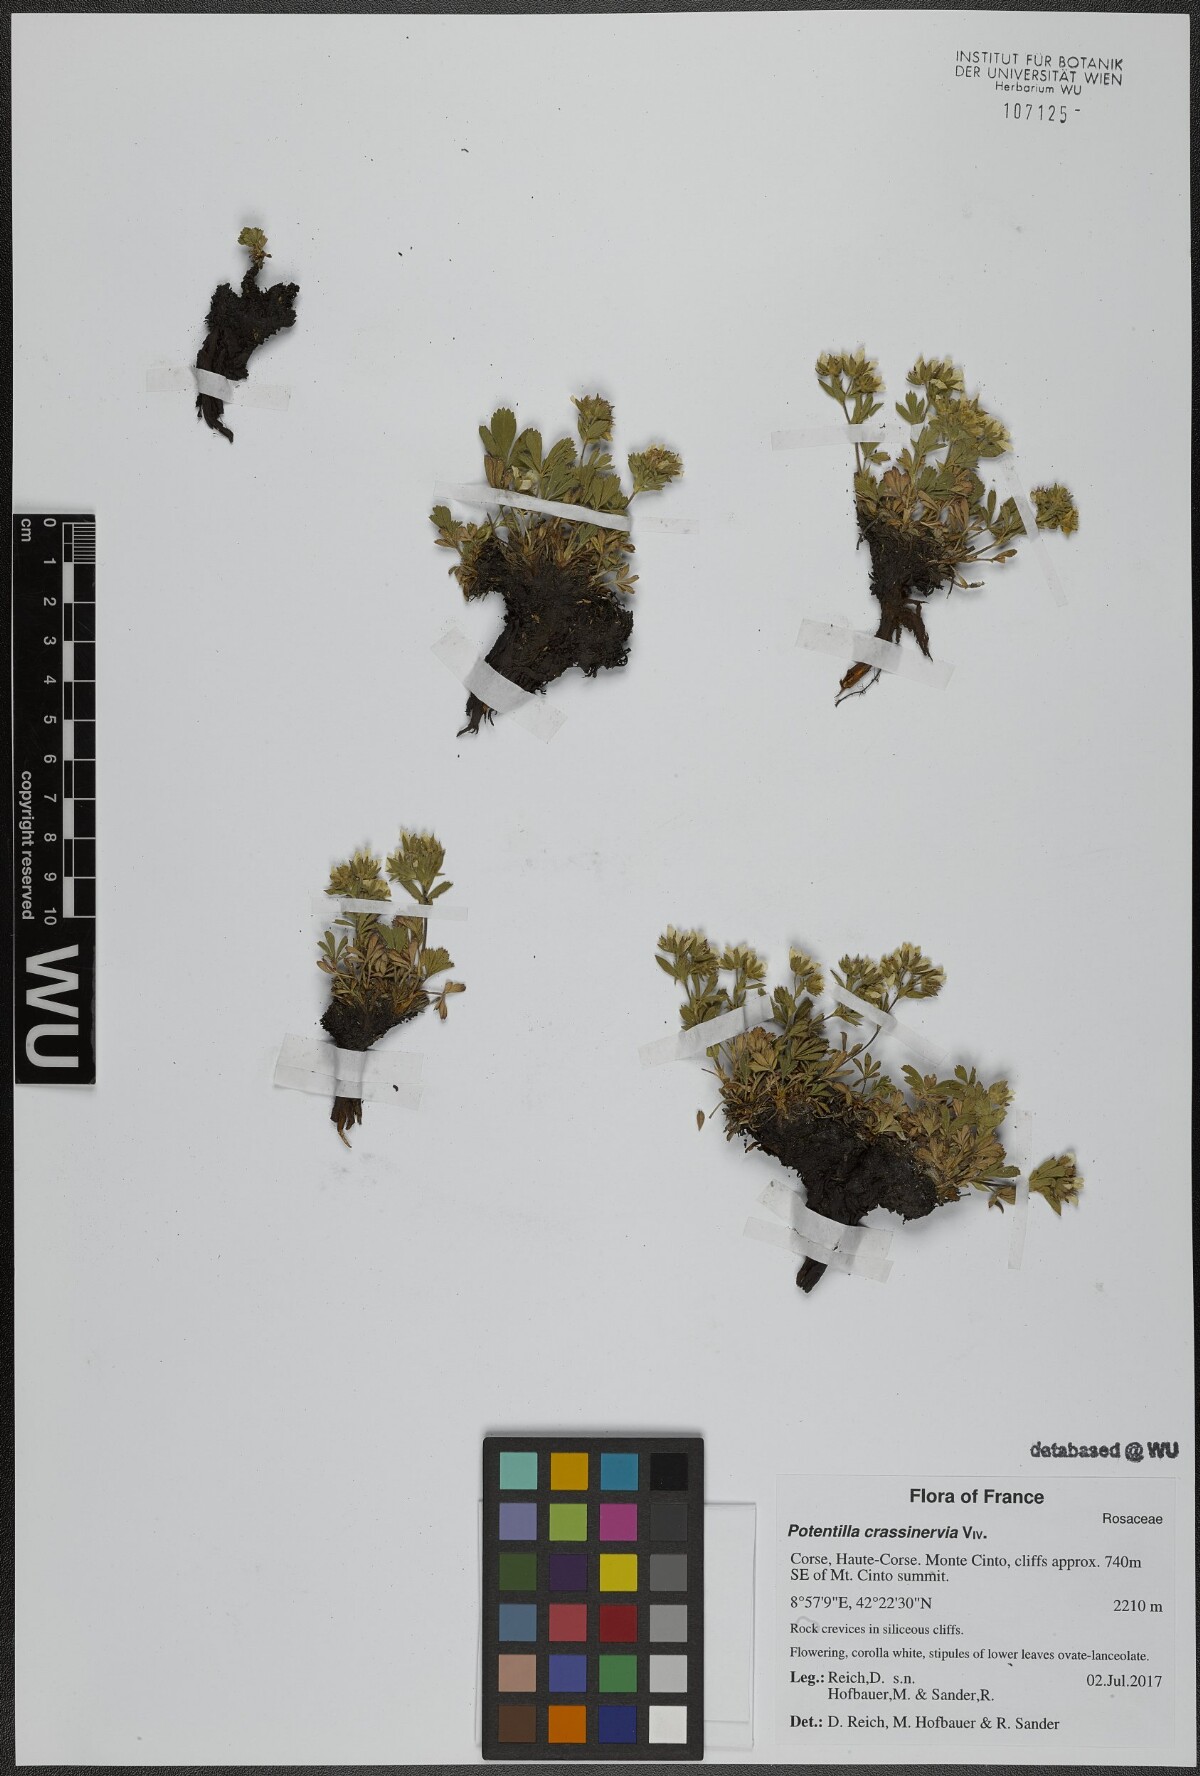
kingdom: Plantae
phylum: Tracheophyta
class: Magnoliopsida
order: Rosales
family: Rosaceae
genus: Potentilla
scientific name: Potentilla crassinervia
